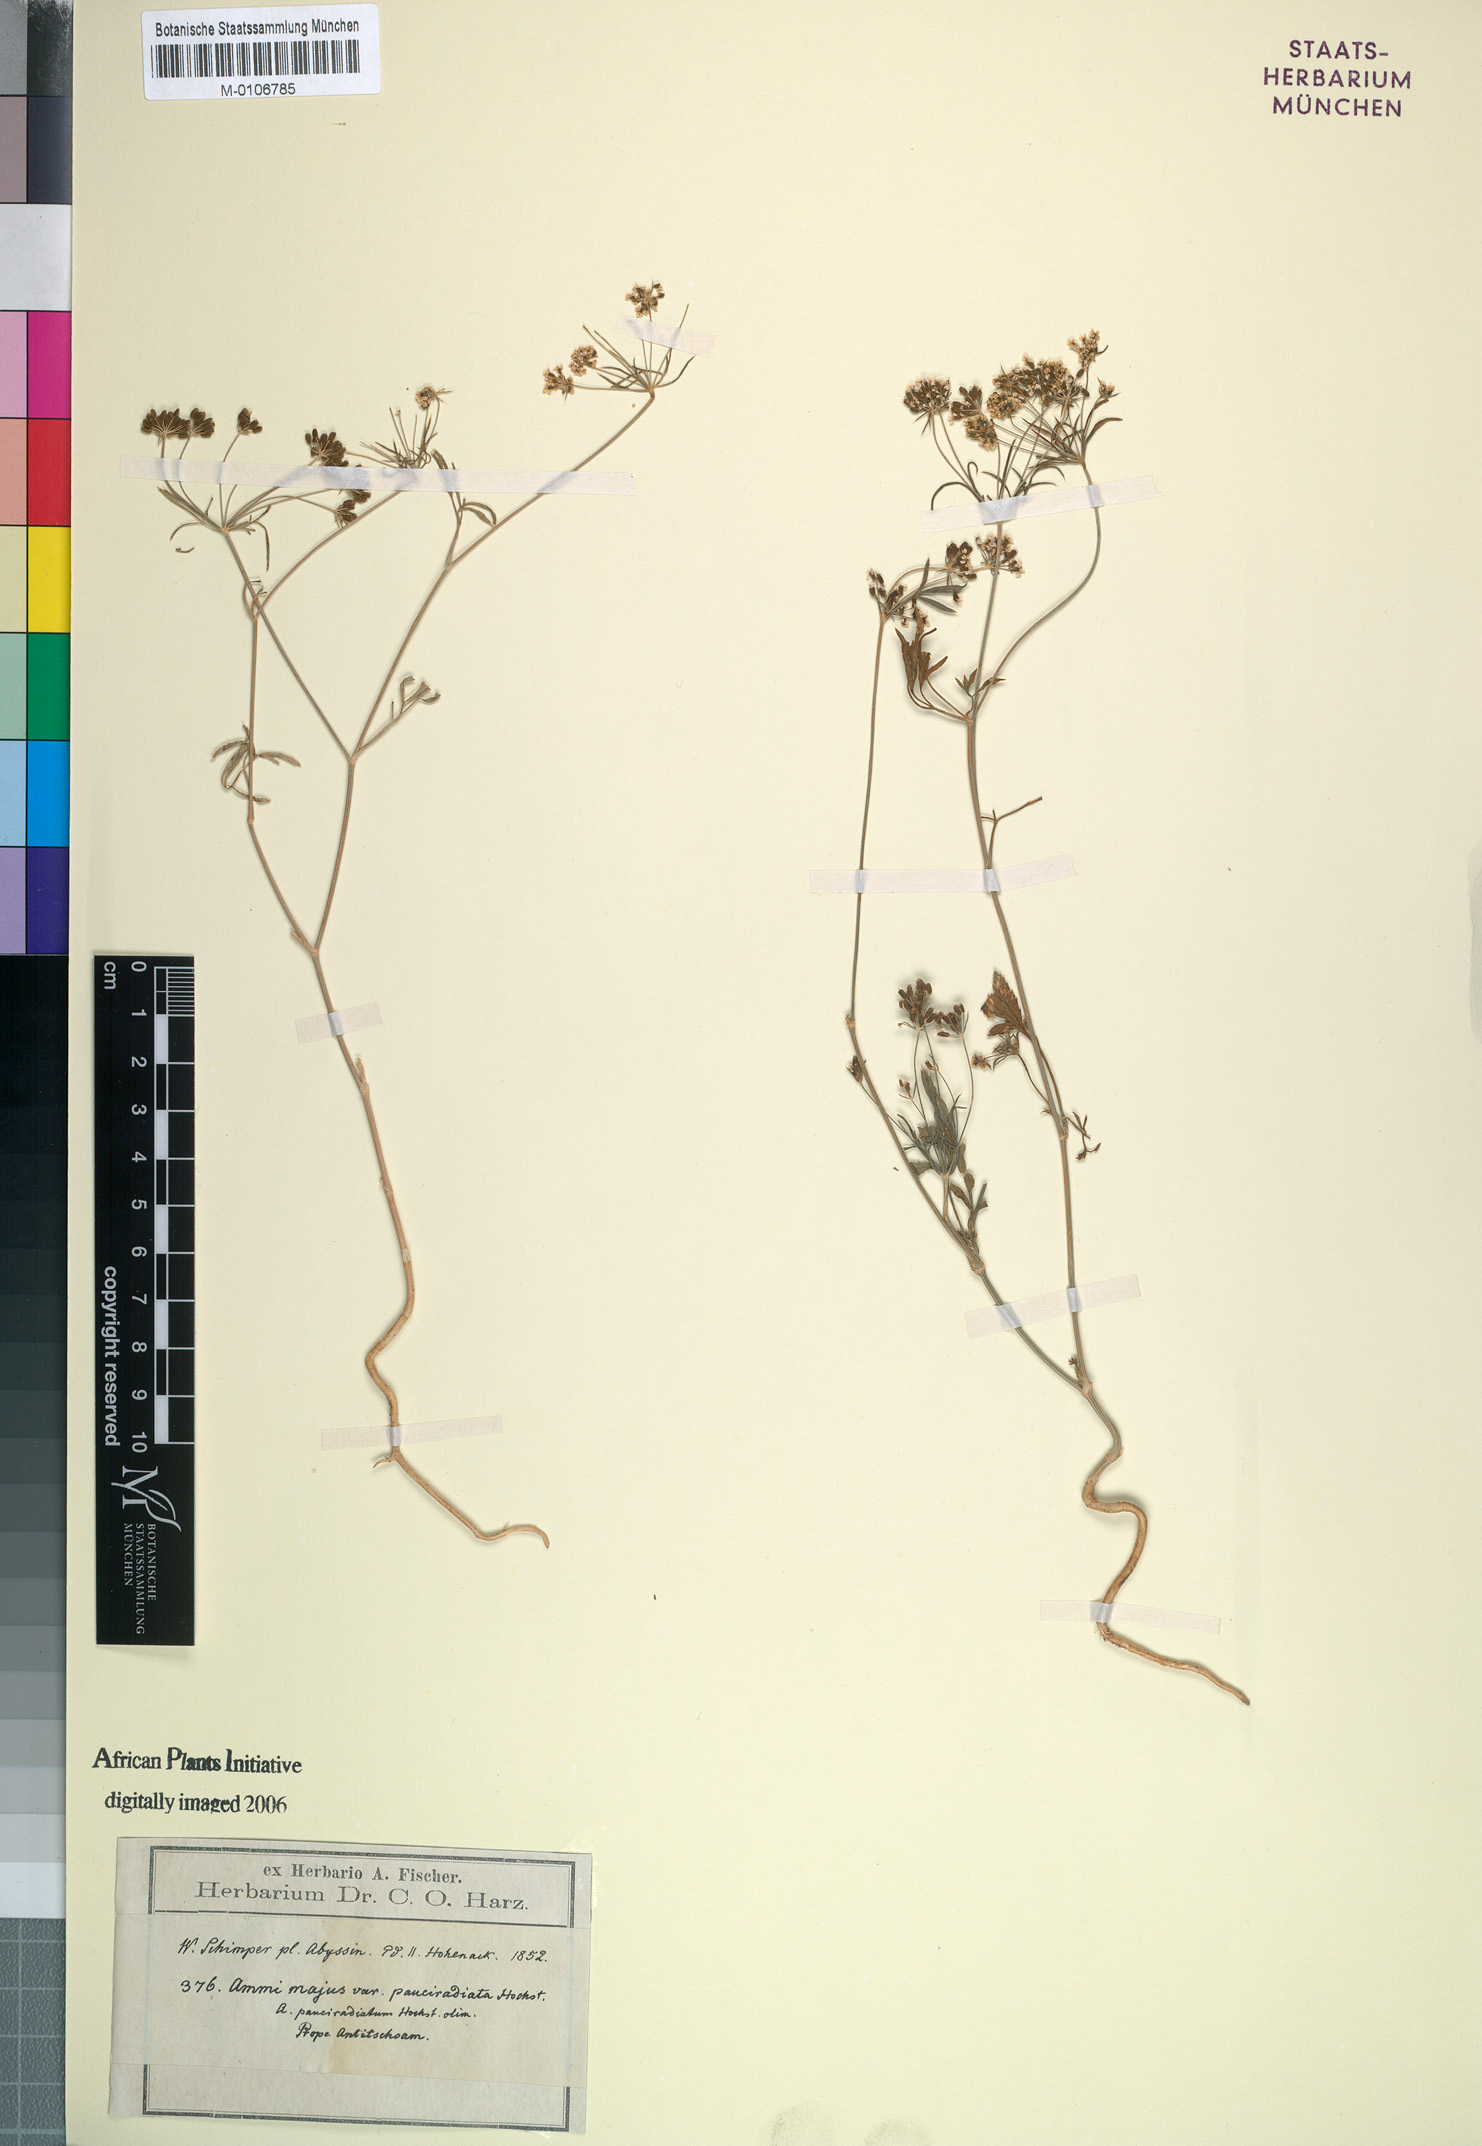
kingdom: Plantae
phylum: Tracheophyta
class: Magnoliopsida
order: Apiales
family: Apiaceae
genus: Ammi
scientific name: Ammi majus
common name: Bullwort
